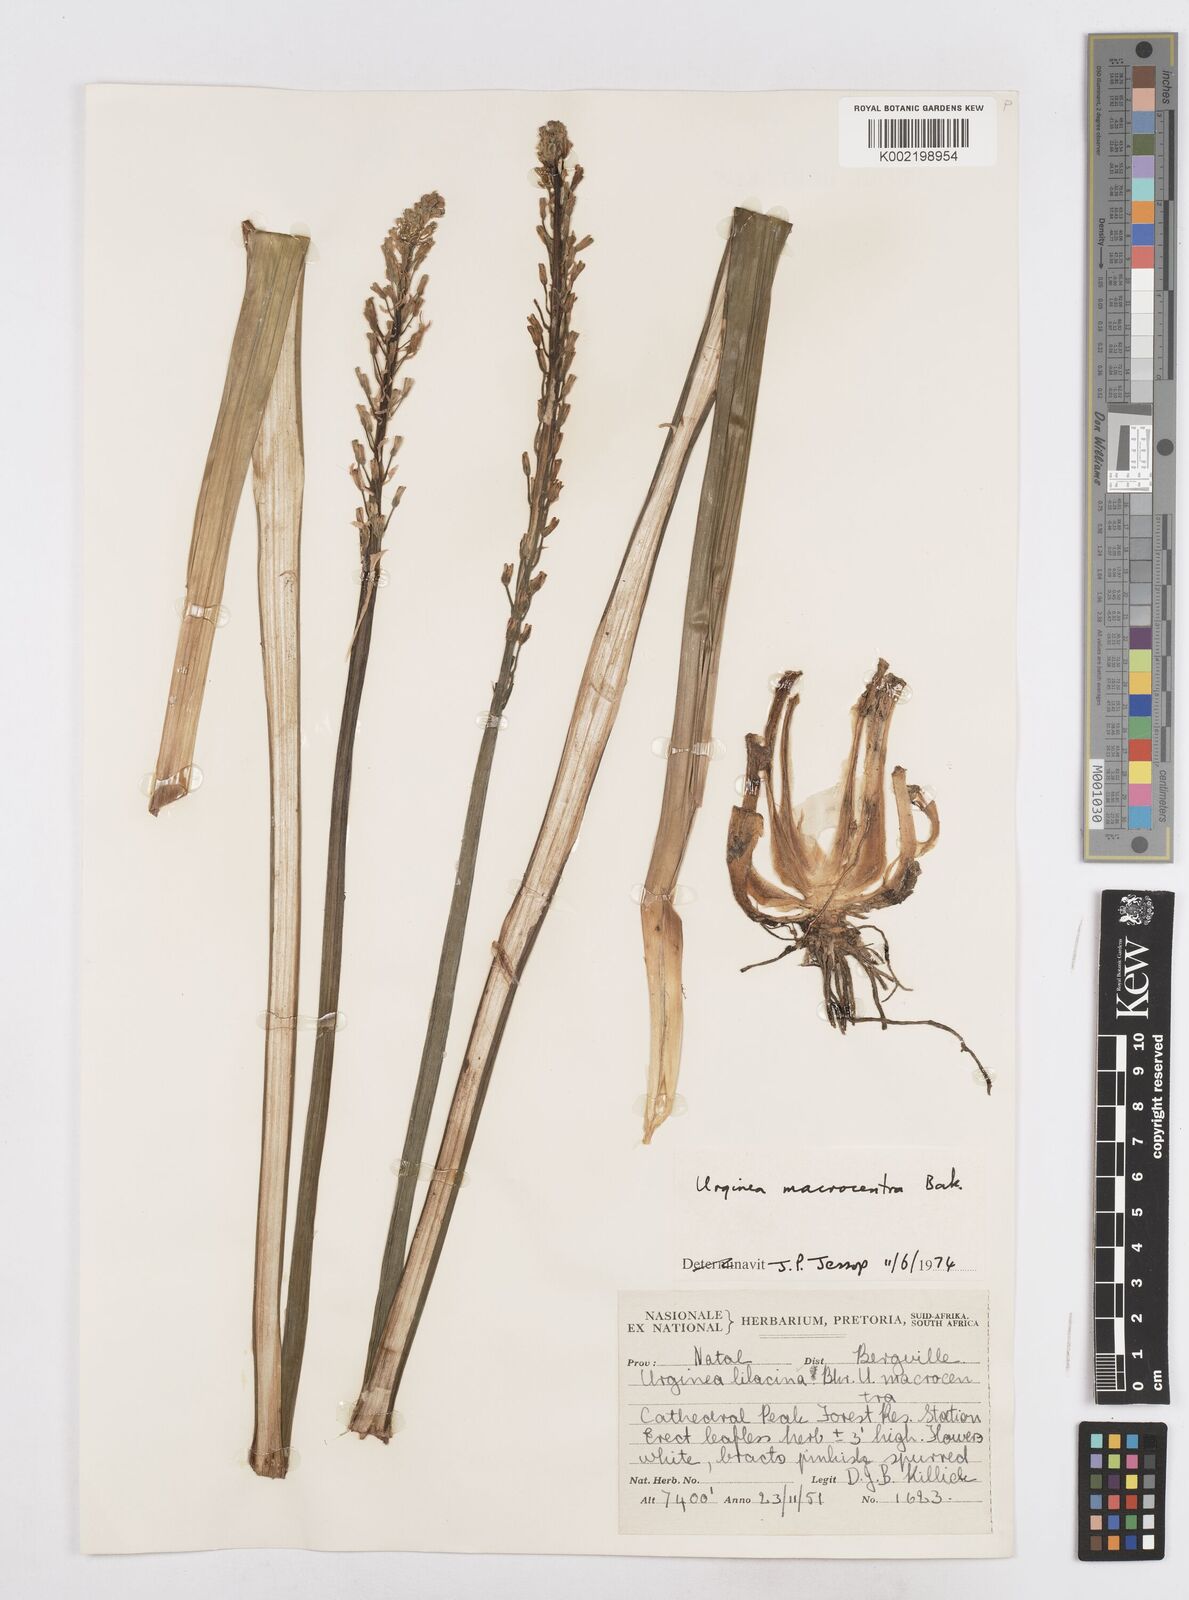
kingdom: Plantae
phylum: Tracheophyta
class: Liliopsida
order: Asparagales
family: Asparagaceae
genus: Drimia
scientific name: Drimia macrocentra
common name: Natal slangkop
